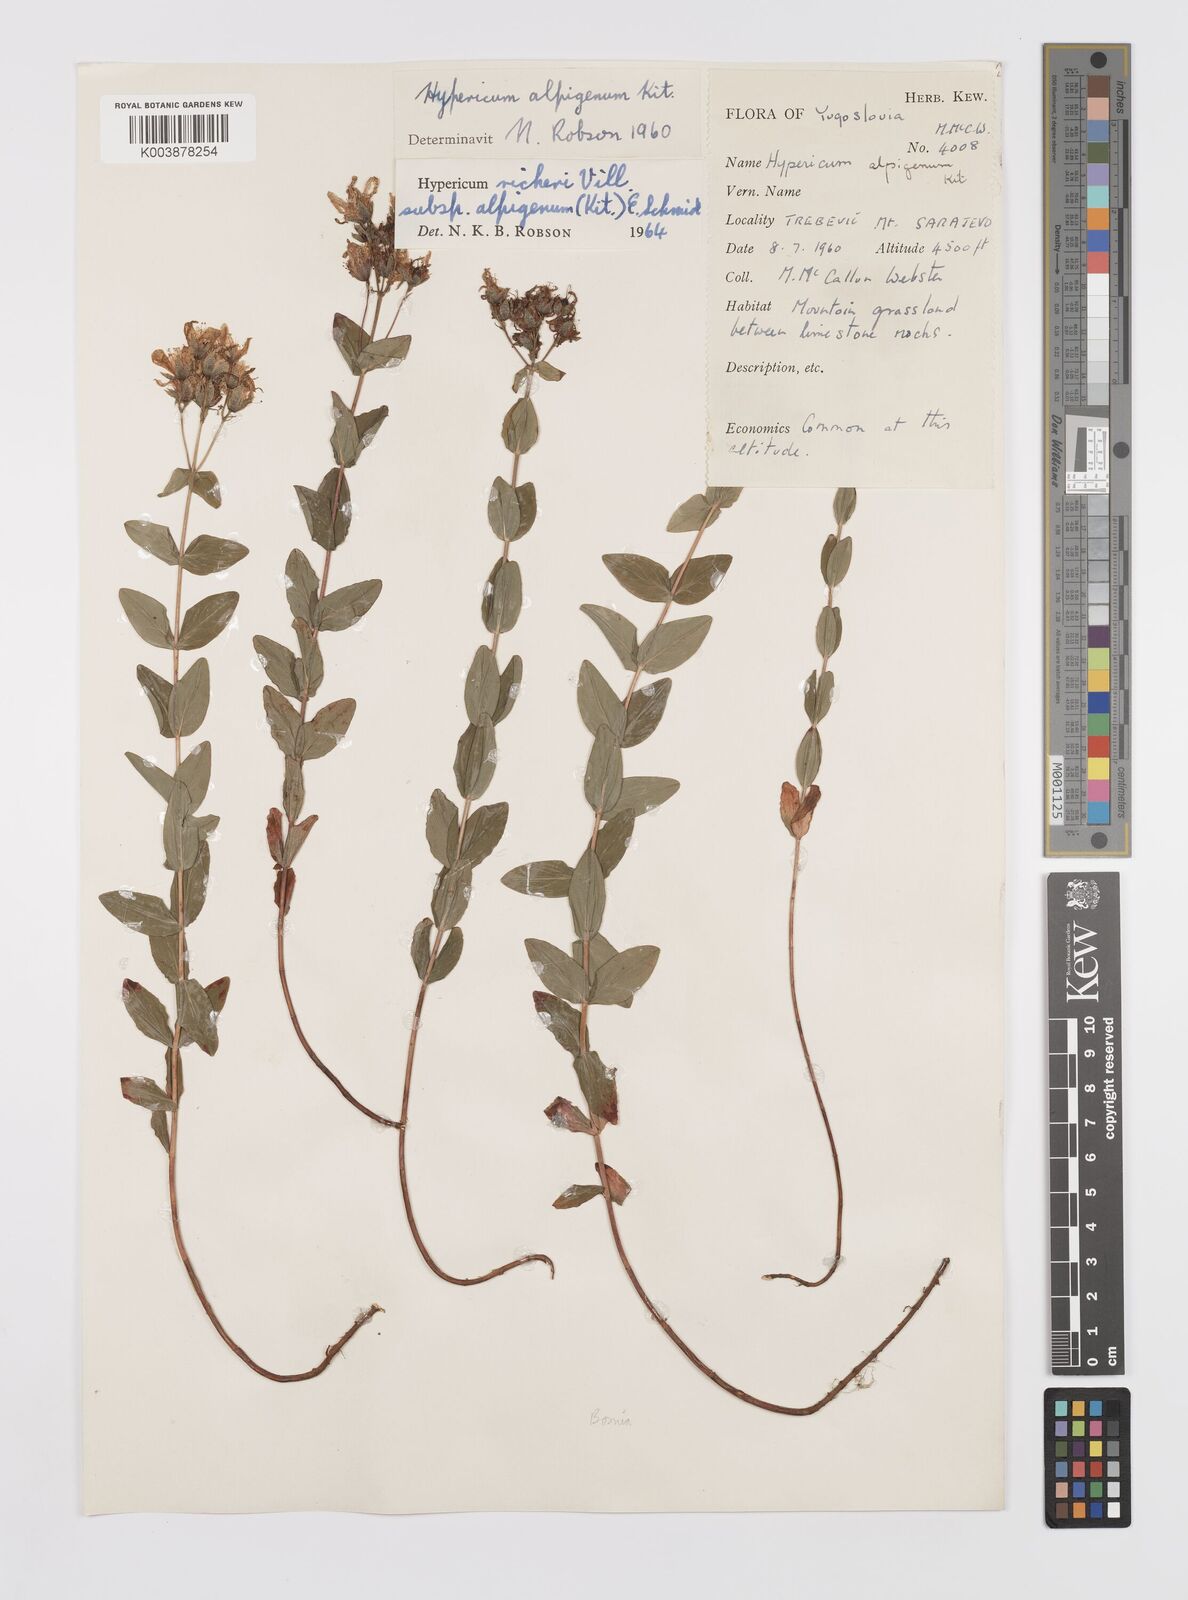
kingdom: Plantae
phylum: Tracheophyta
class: Magnoliopsida
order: Malpighiales
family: Hypericaceae
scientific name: Hypericaceae
